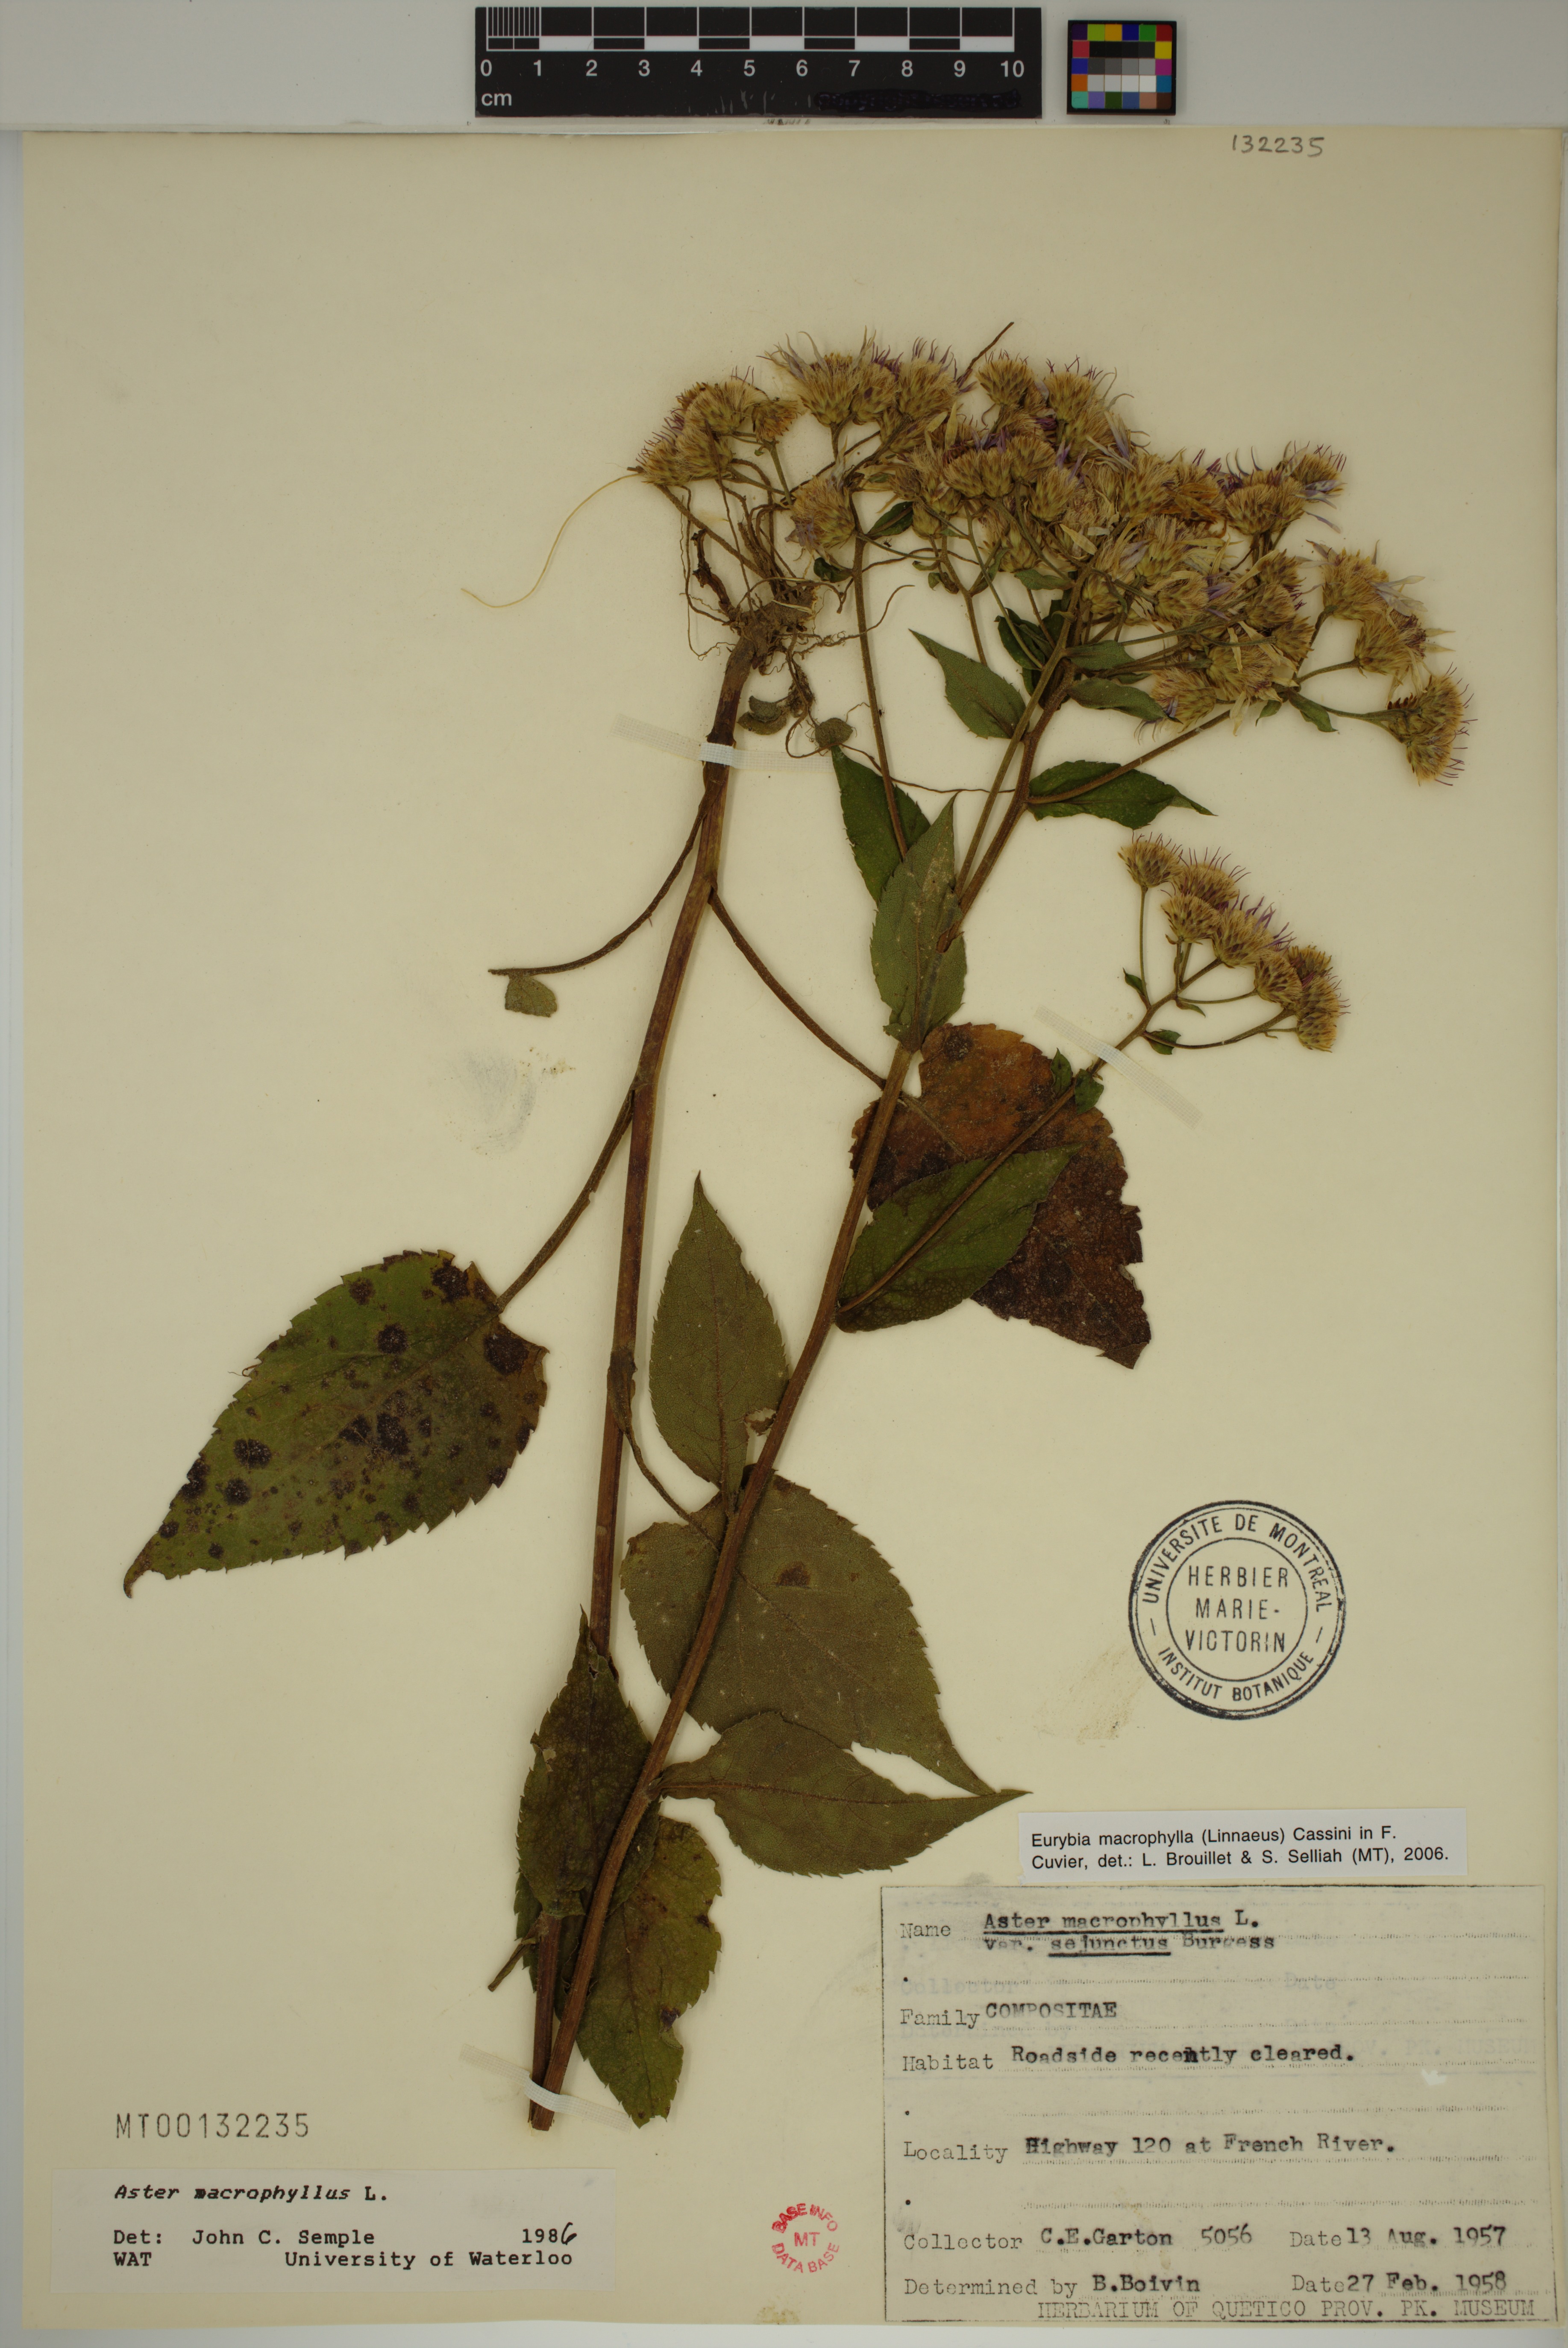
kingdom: Plantae
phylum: Tracheophyta
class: Magnoliopsida
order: Asterales
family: Asteraceae
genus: Eurybia
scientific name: Eurybia macrophylla
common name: Big-leaved aster
